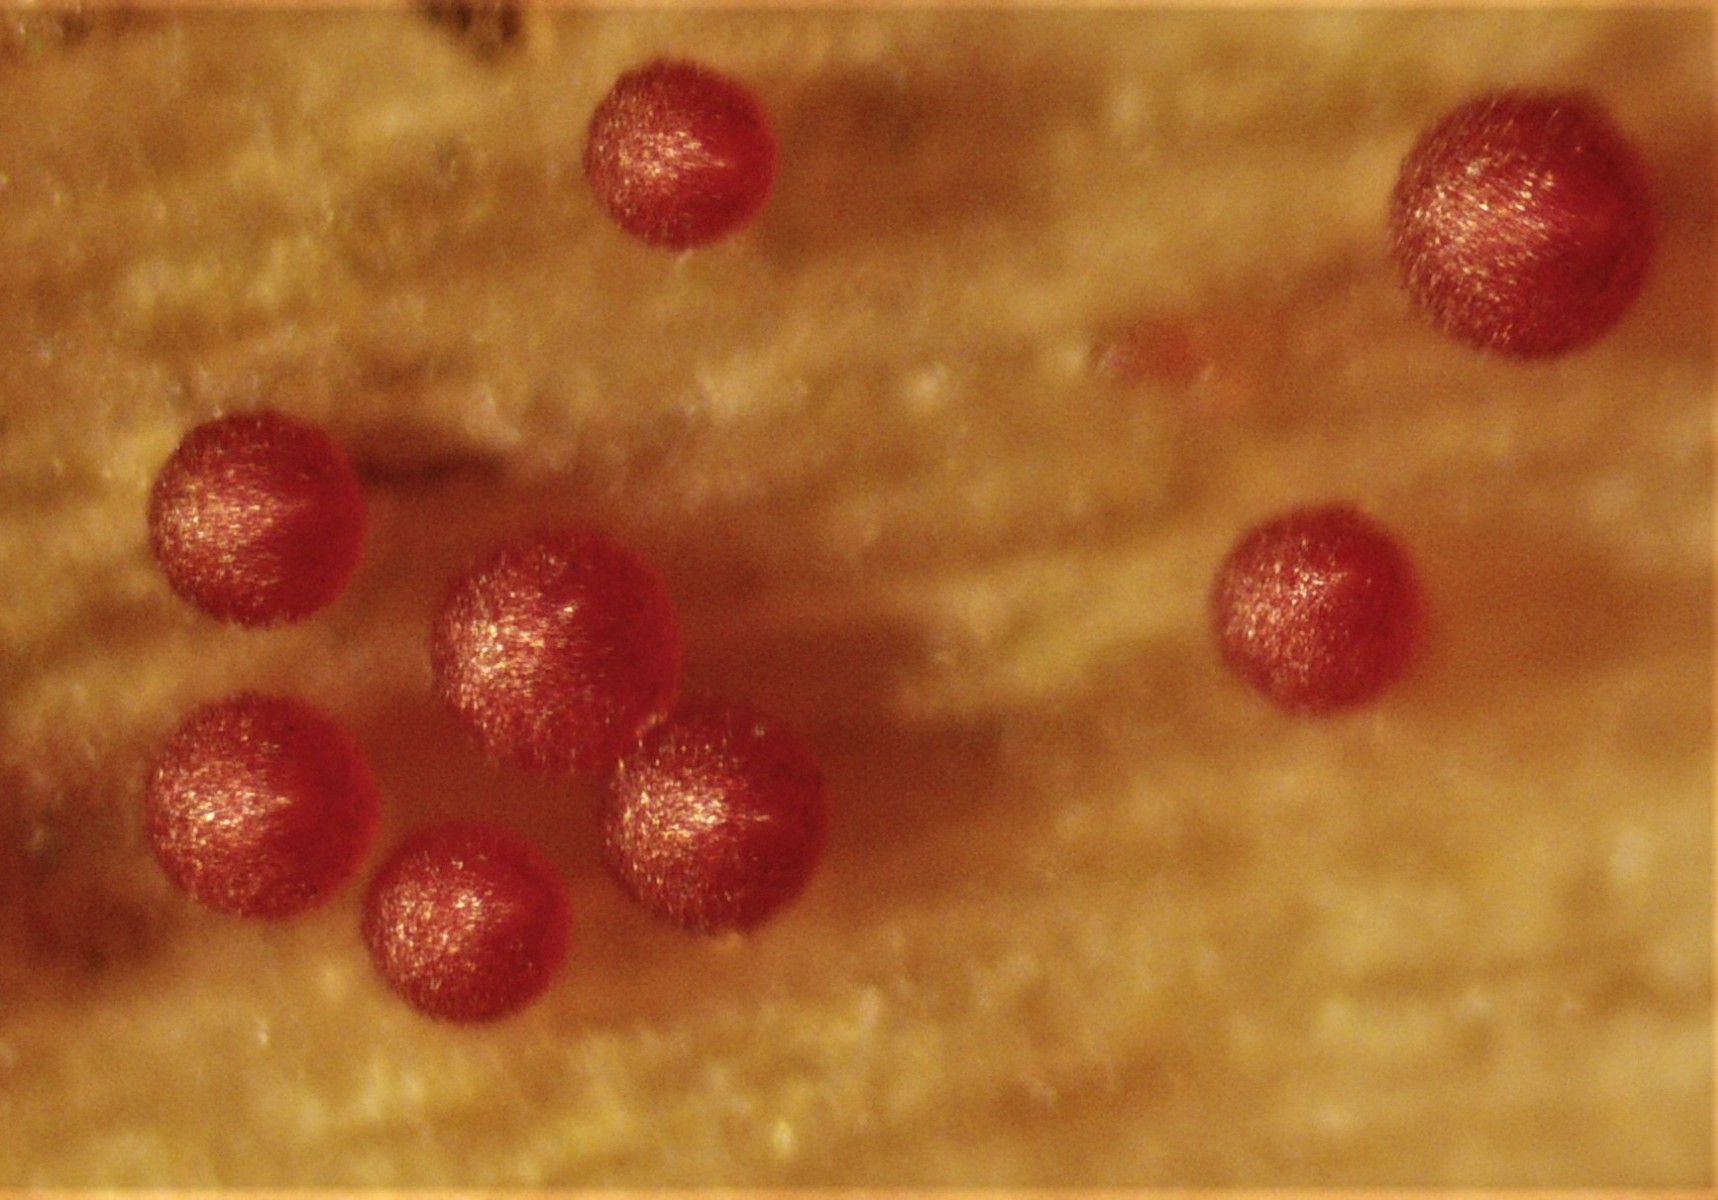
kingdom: Fungi
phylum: Ascomycota
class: Sordariomycetes
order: Hypocreales
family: Nectriaceae
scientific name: Nectriaceae
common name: cinnobersvampfamilien
